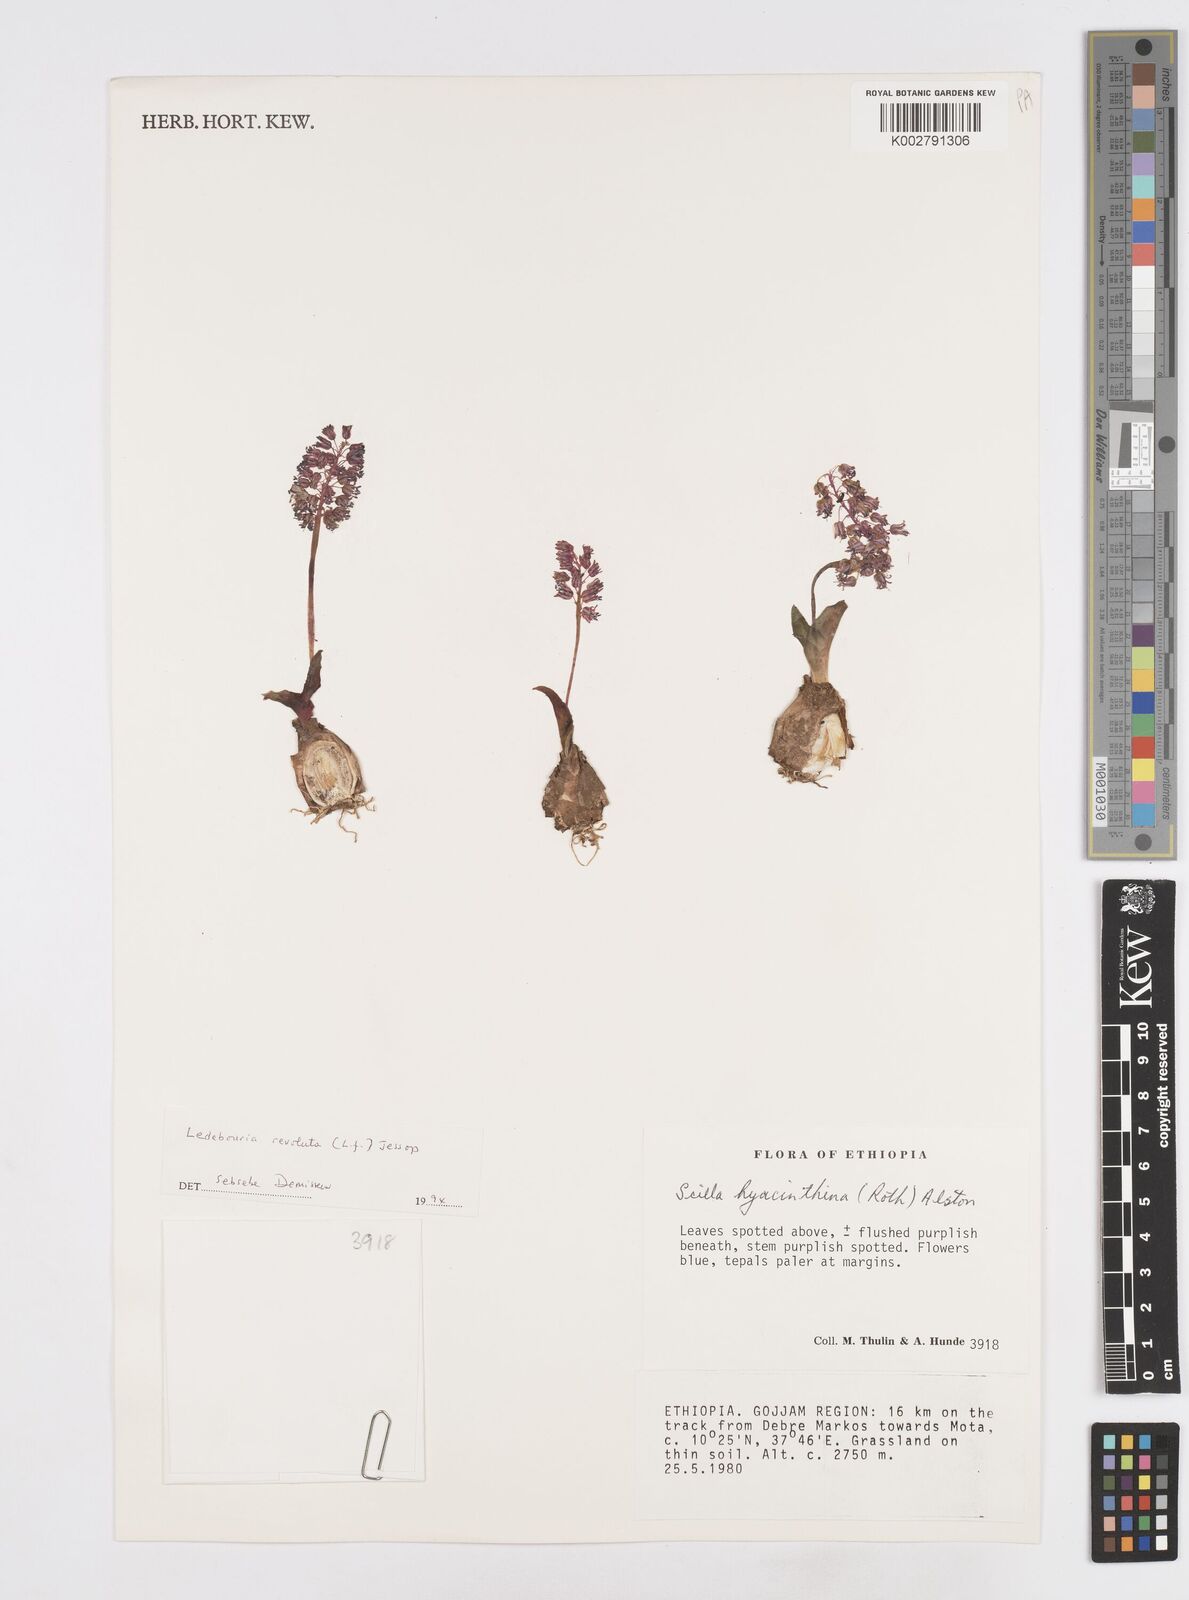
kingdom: Plantae
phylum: Tracheophyta
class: Liliopsida
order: Asparagales
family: Asparagaceae
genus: Scilla
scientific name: Scilla
